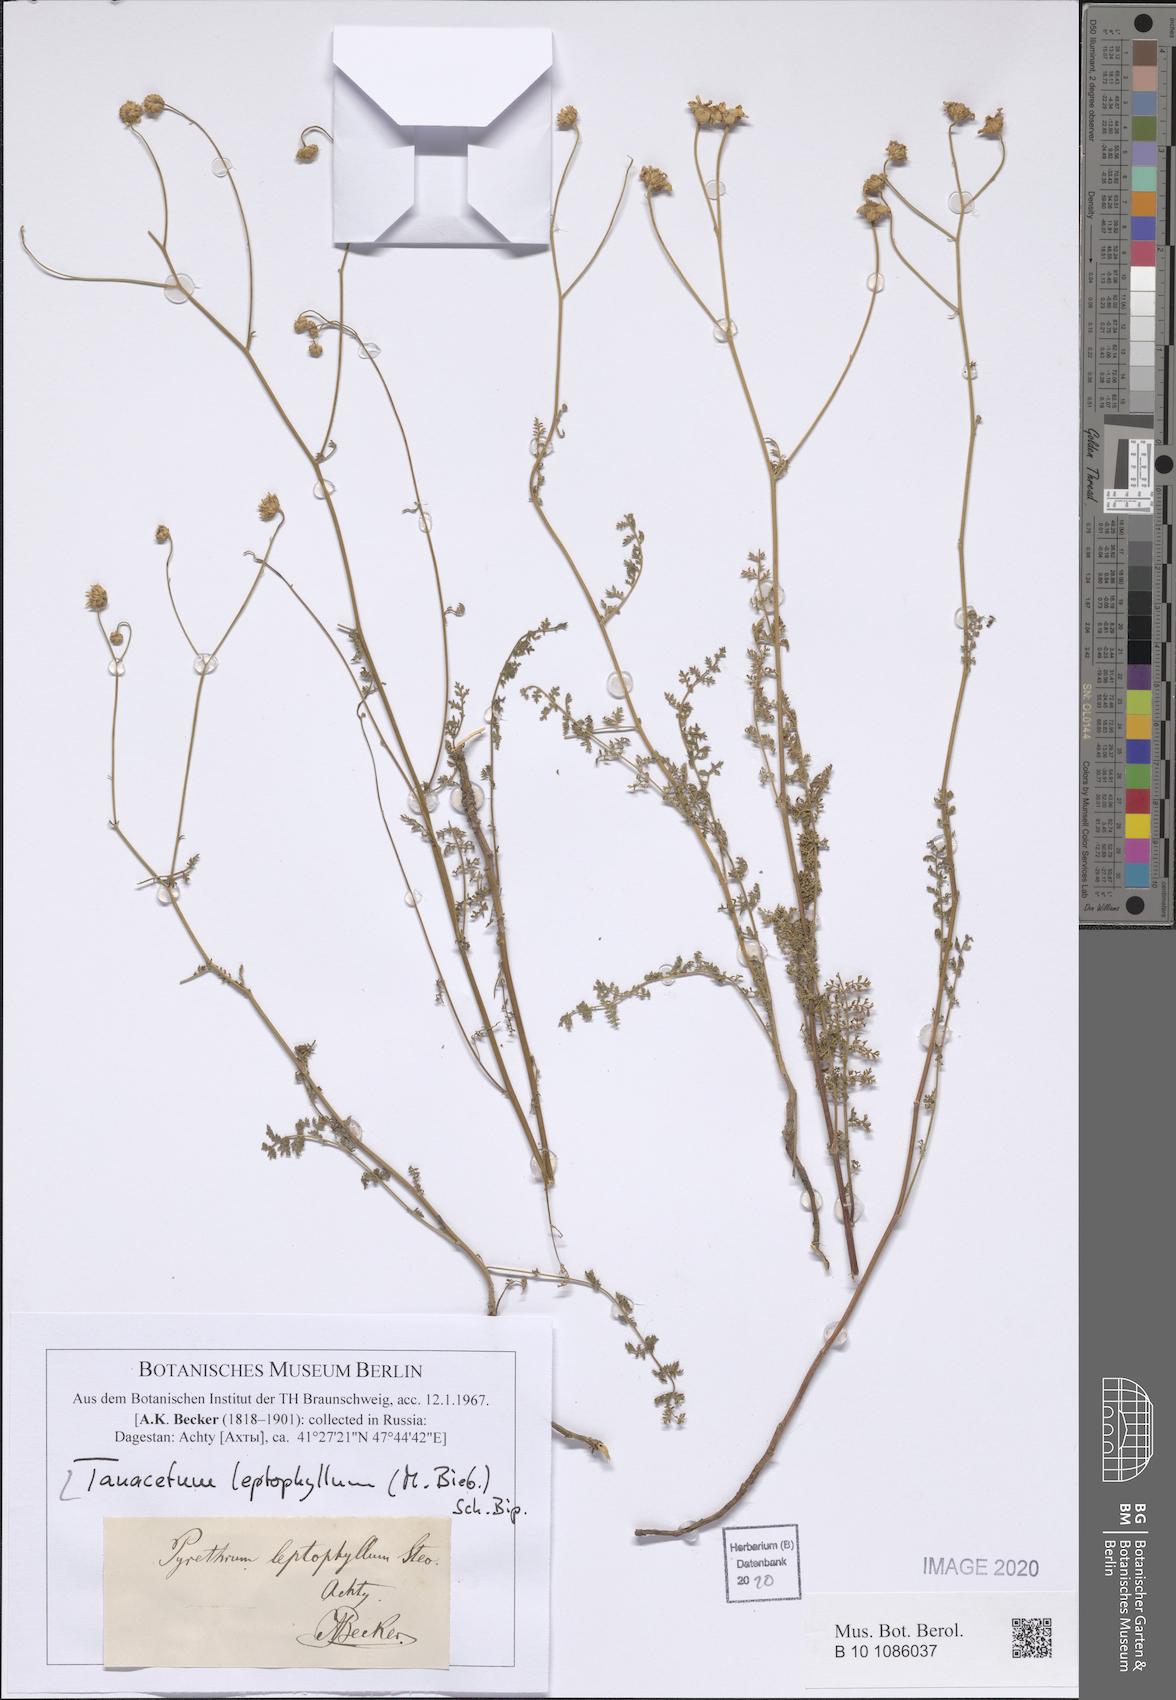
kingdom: Plantae
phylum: Tracheophyta
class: Magnoliopsida
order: Asterales
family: Asteraceae
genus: Tanacetum
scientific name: Tanacetum leptophyllum
